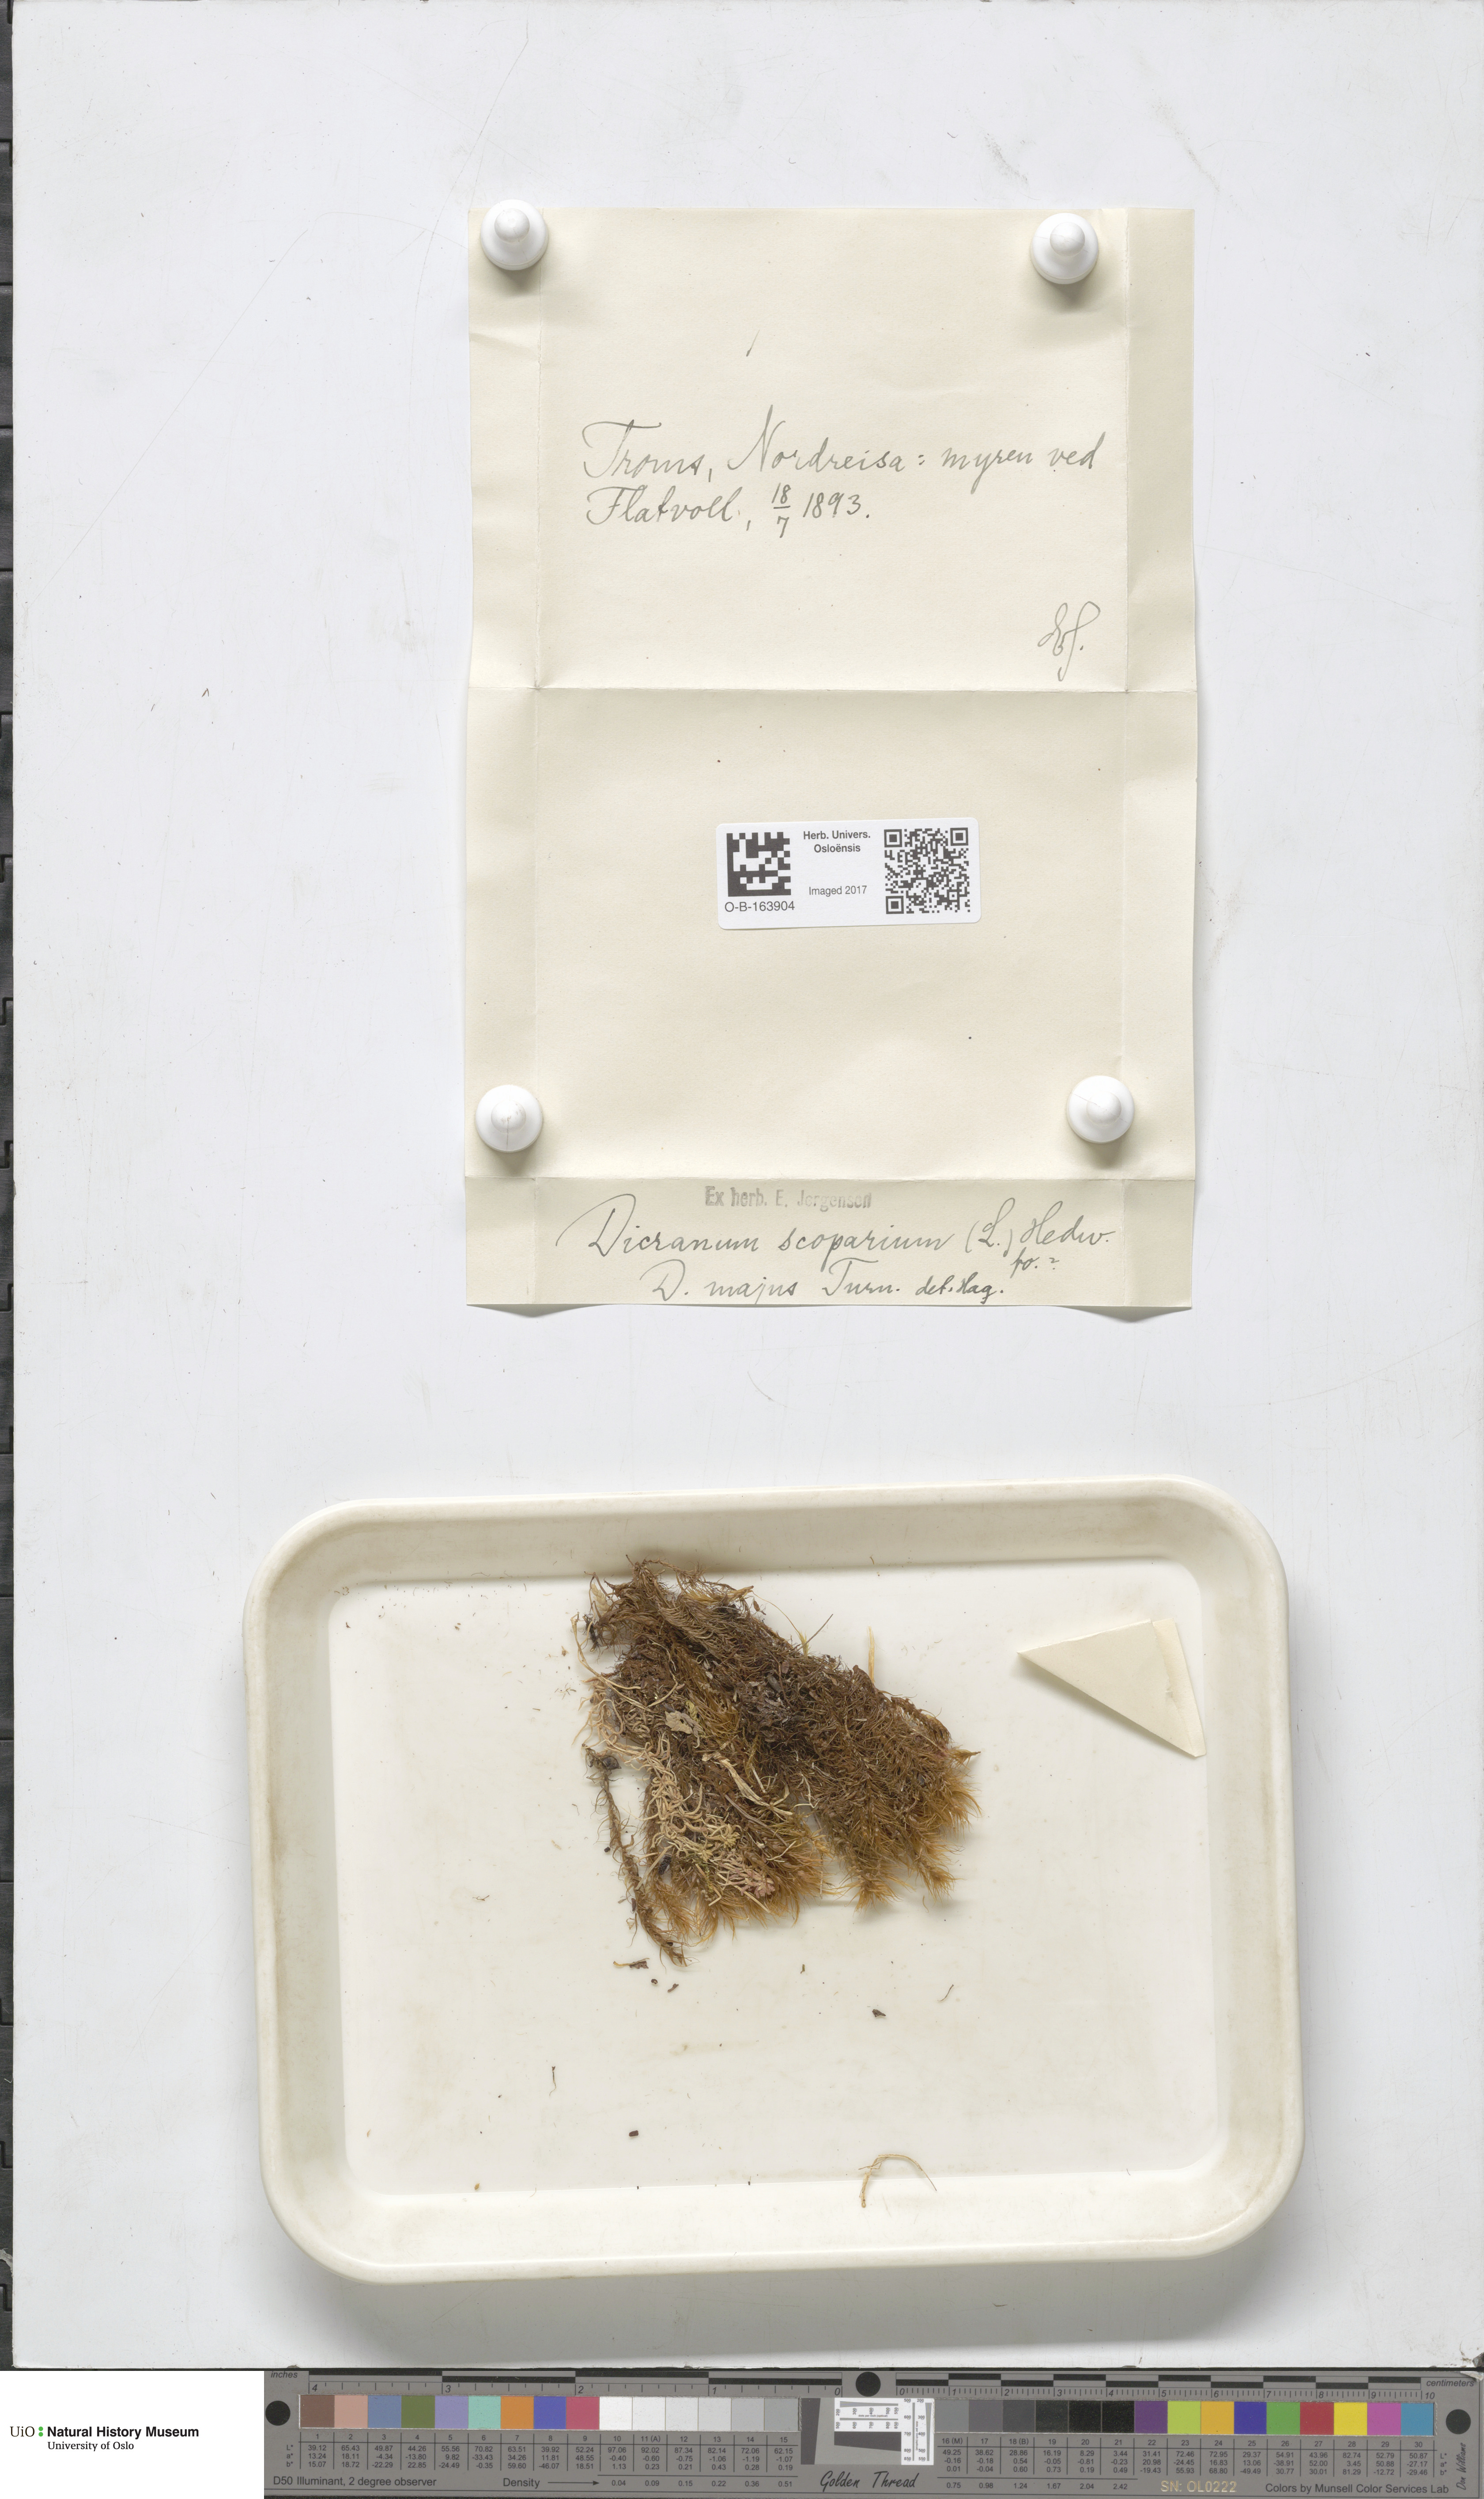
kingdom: Plantae
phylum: Bryophyta
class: Bryopsida
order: Dicranales
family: Dicranaceae
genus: Dicranum
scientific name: Dicranum scoparium
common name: Broom fork-moss
